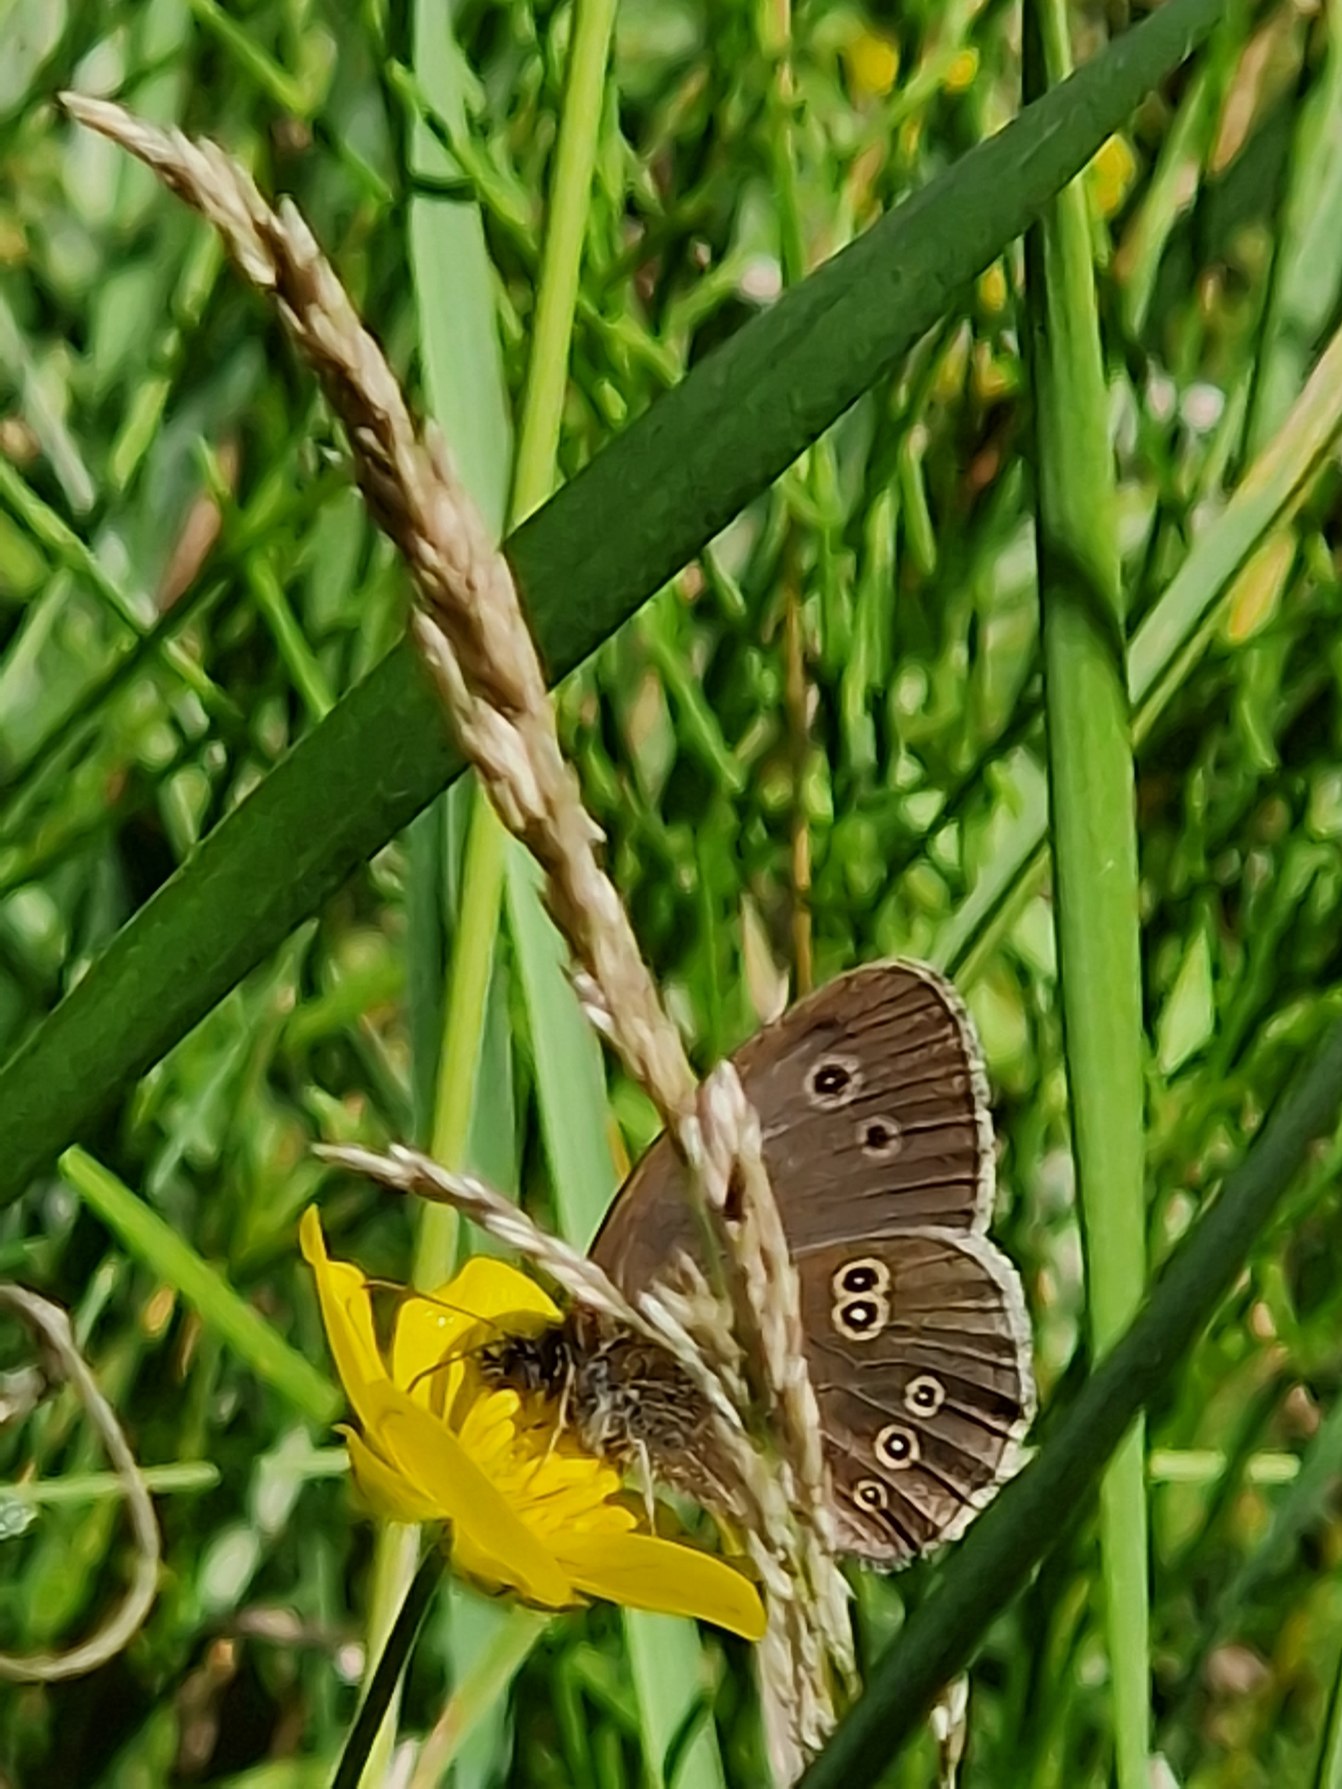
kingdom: Animalia
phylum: Arthropoda
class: Insecta
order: Lepidoptera
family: Nymphalidae
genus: Aphantopus
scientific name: Aphantopus hyperantus
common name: Engrandøje
